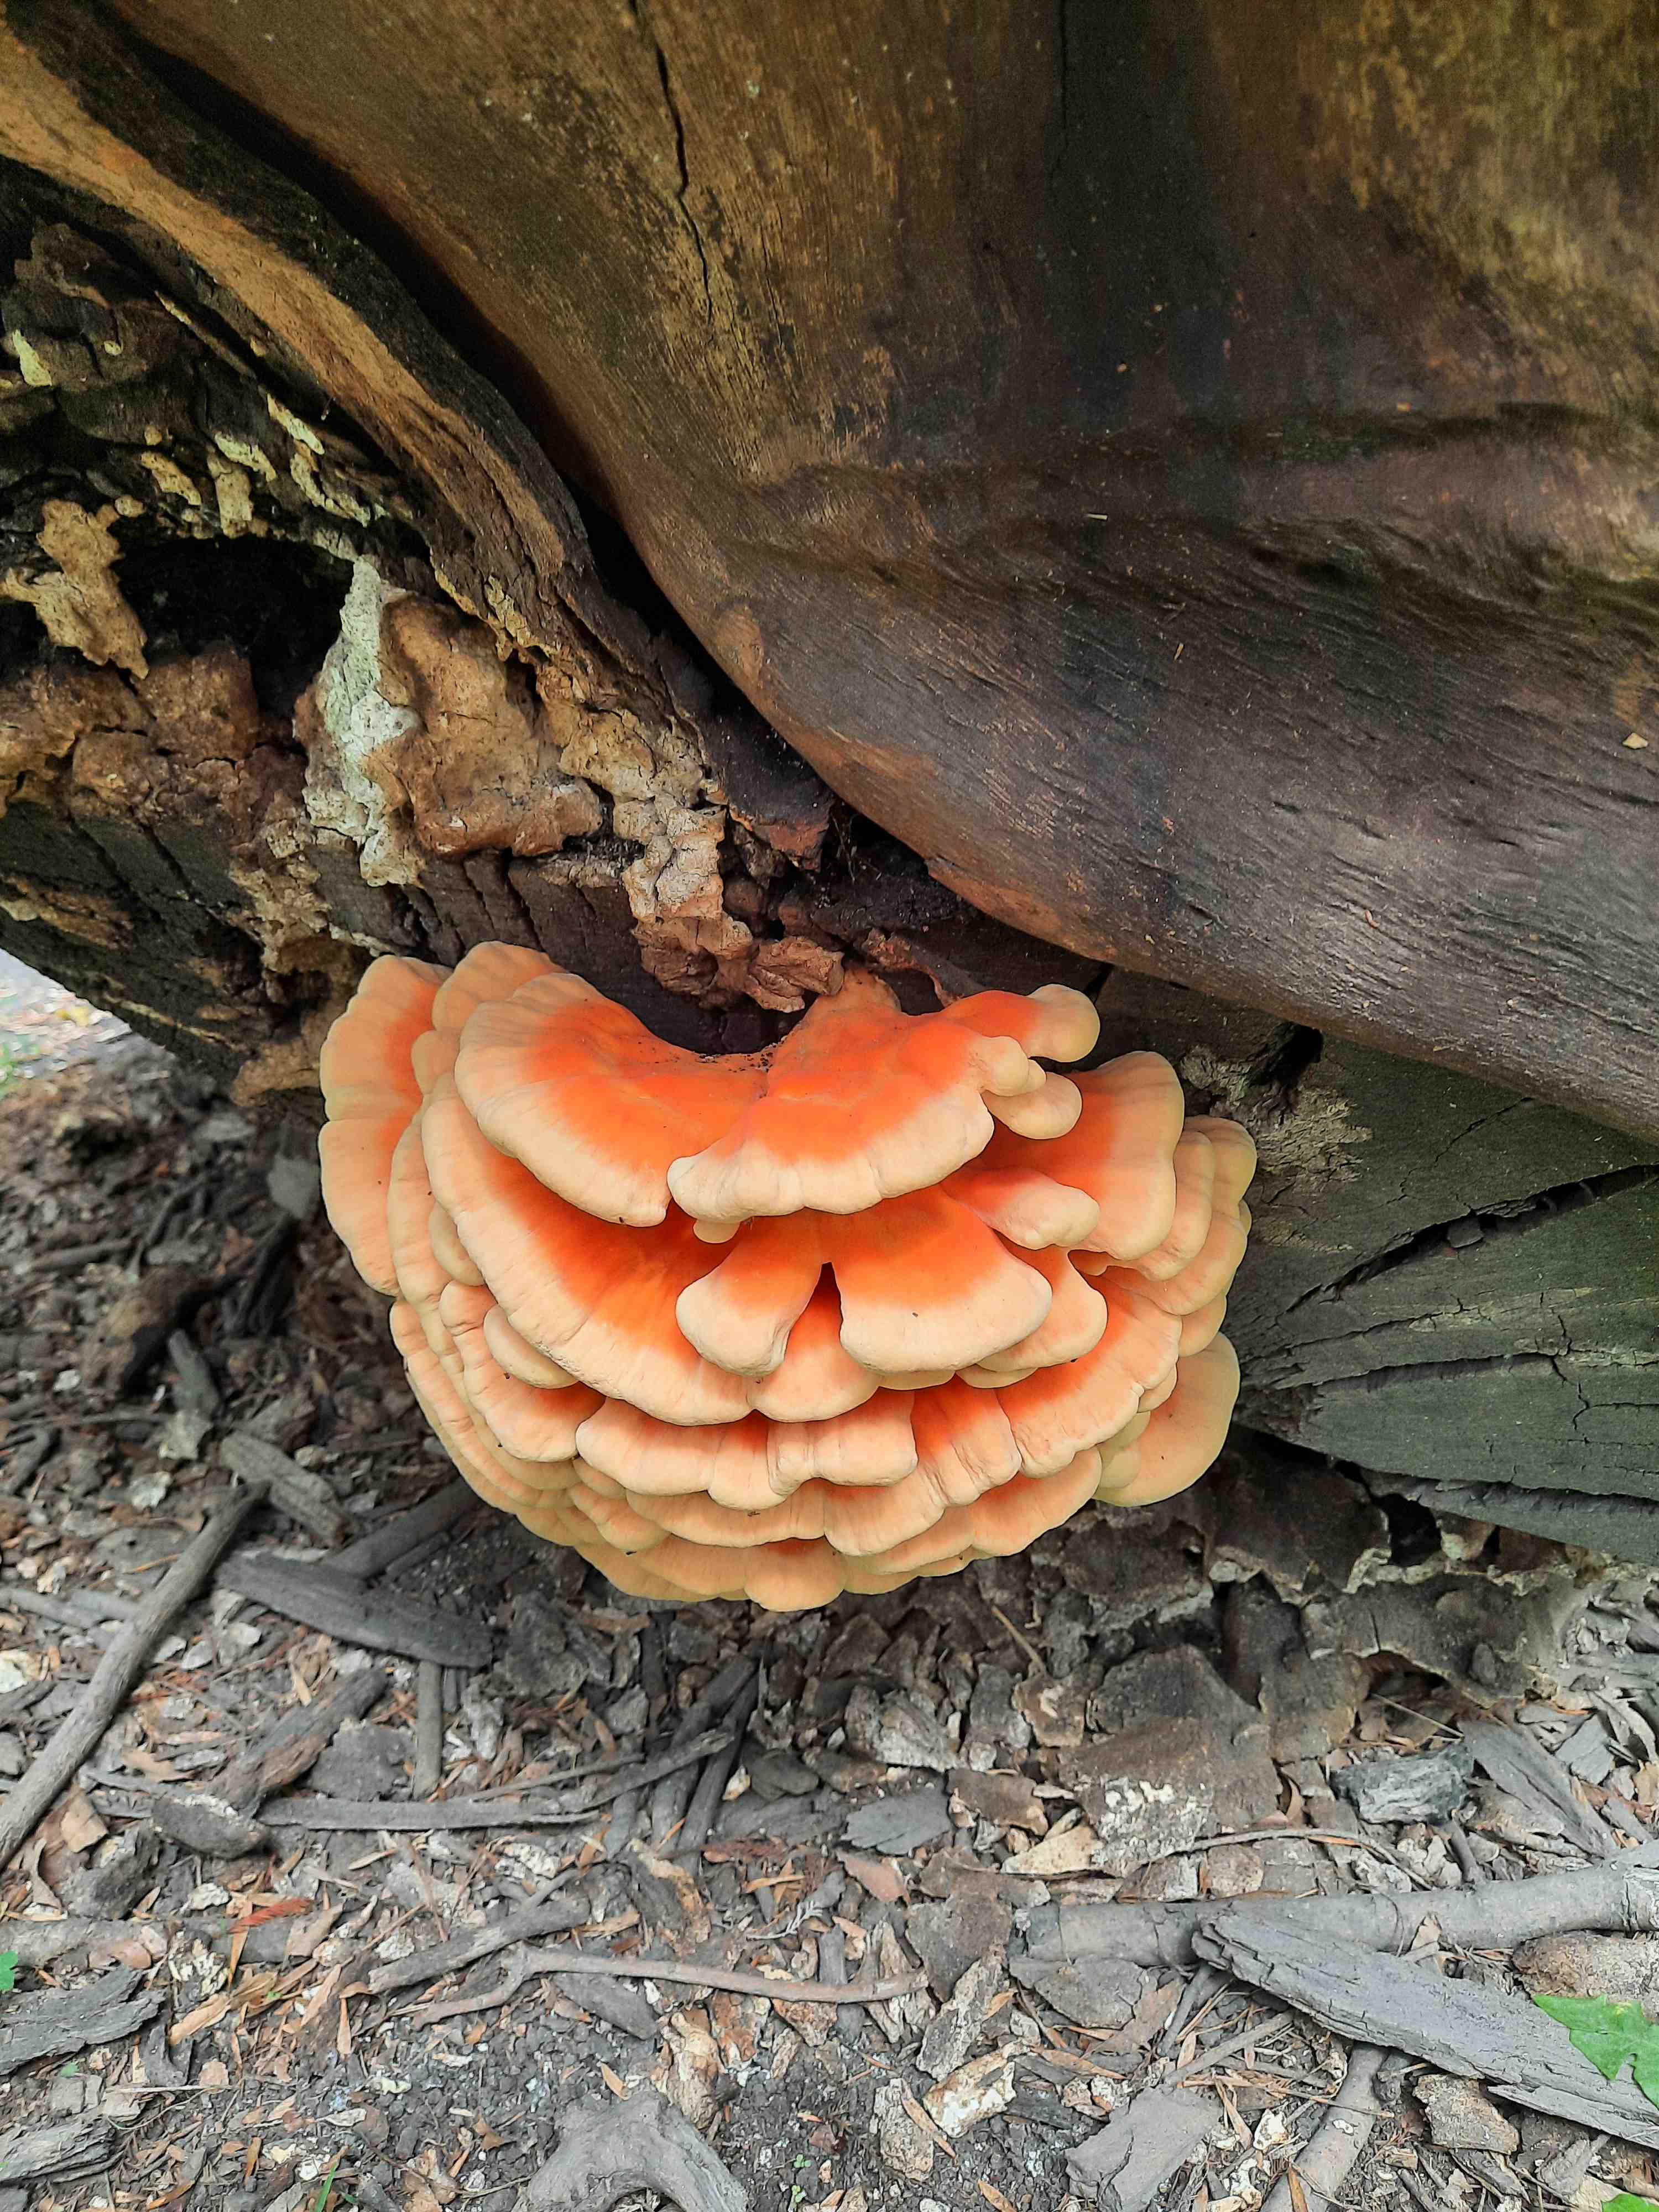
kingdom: Fungi
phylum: Basidiomycota
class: Agaricomycetes
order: Polyporales
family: Laetiporaceae
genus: Laetiporus
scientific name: Laetiporus
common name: svovlporesvamp
